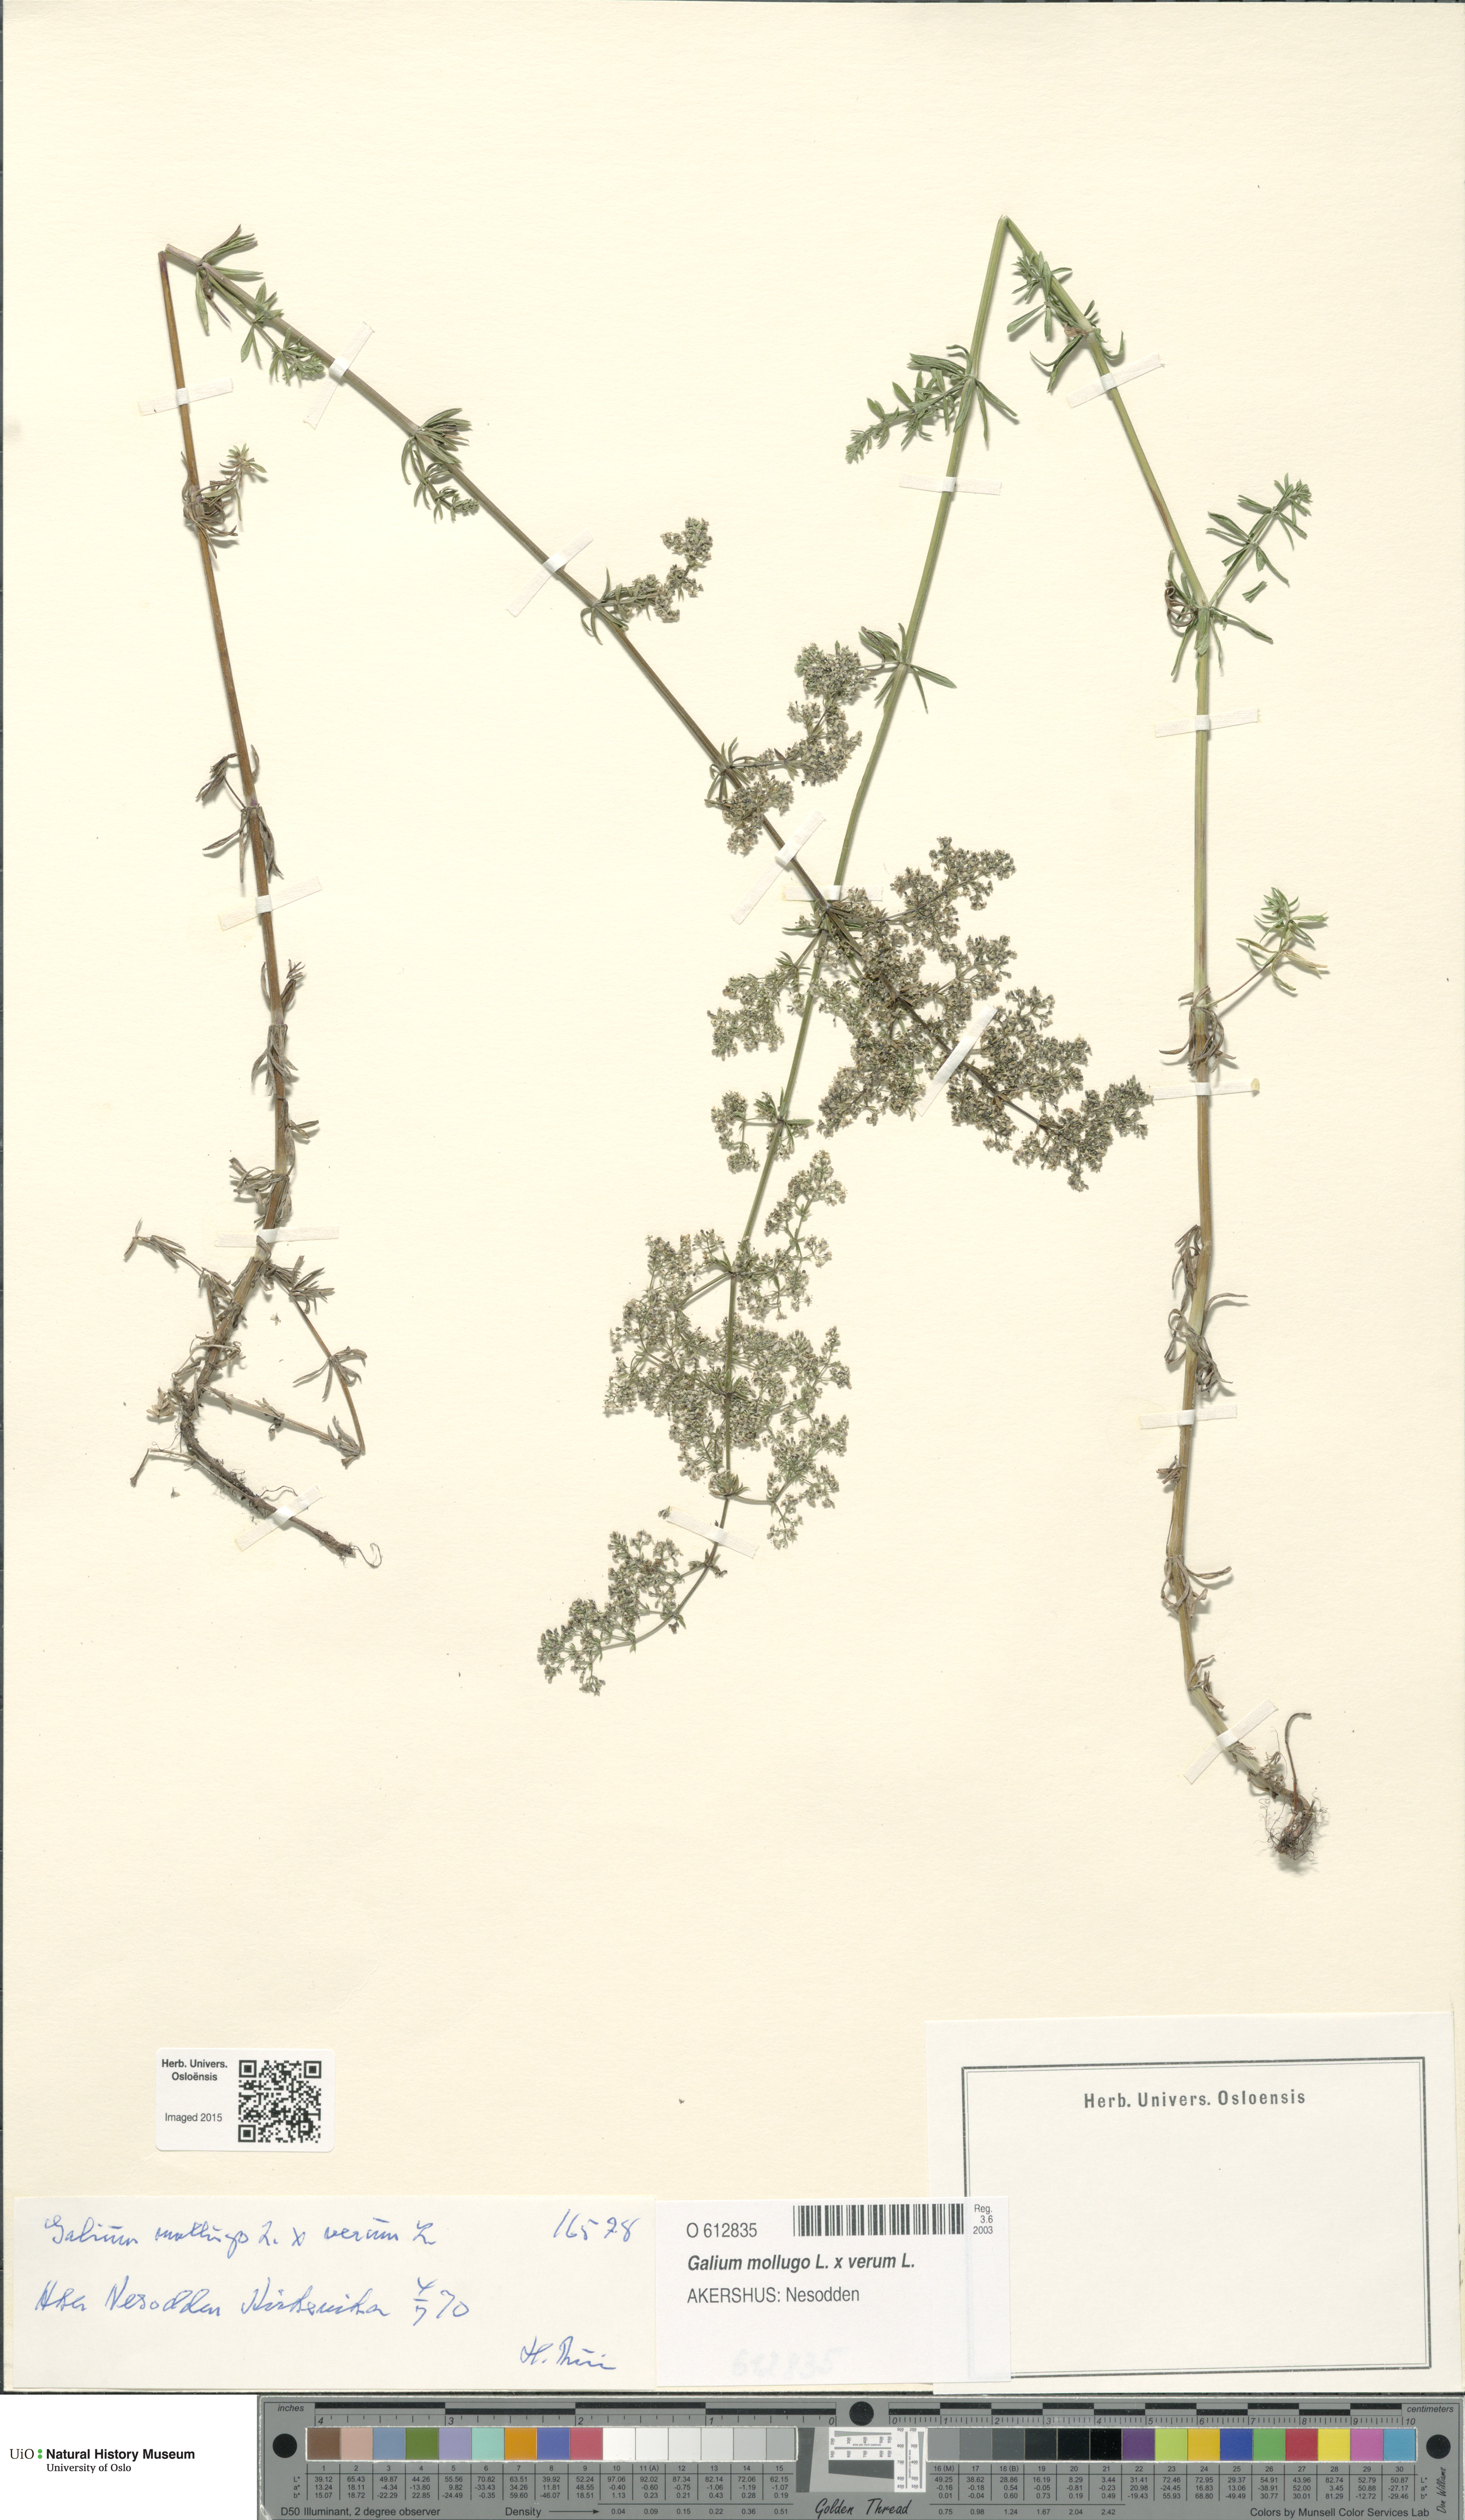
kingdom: Plantae
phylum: Tracheophyta
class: Magnoliopsida
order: Gentianales
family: Rubiaceae
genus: Galium
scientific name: Galium
